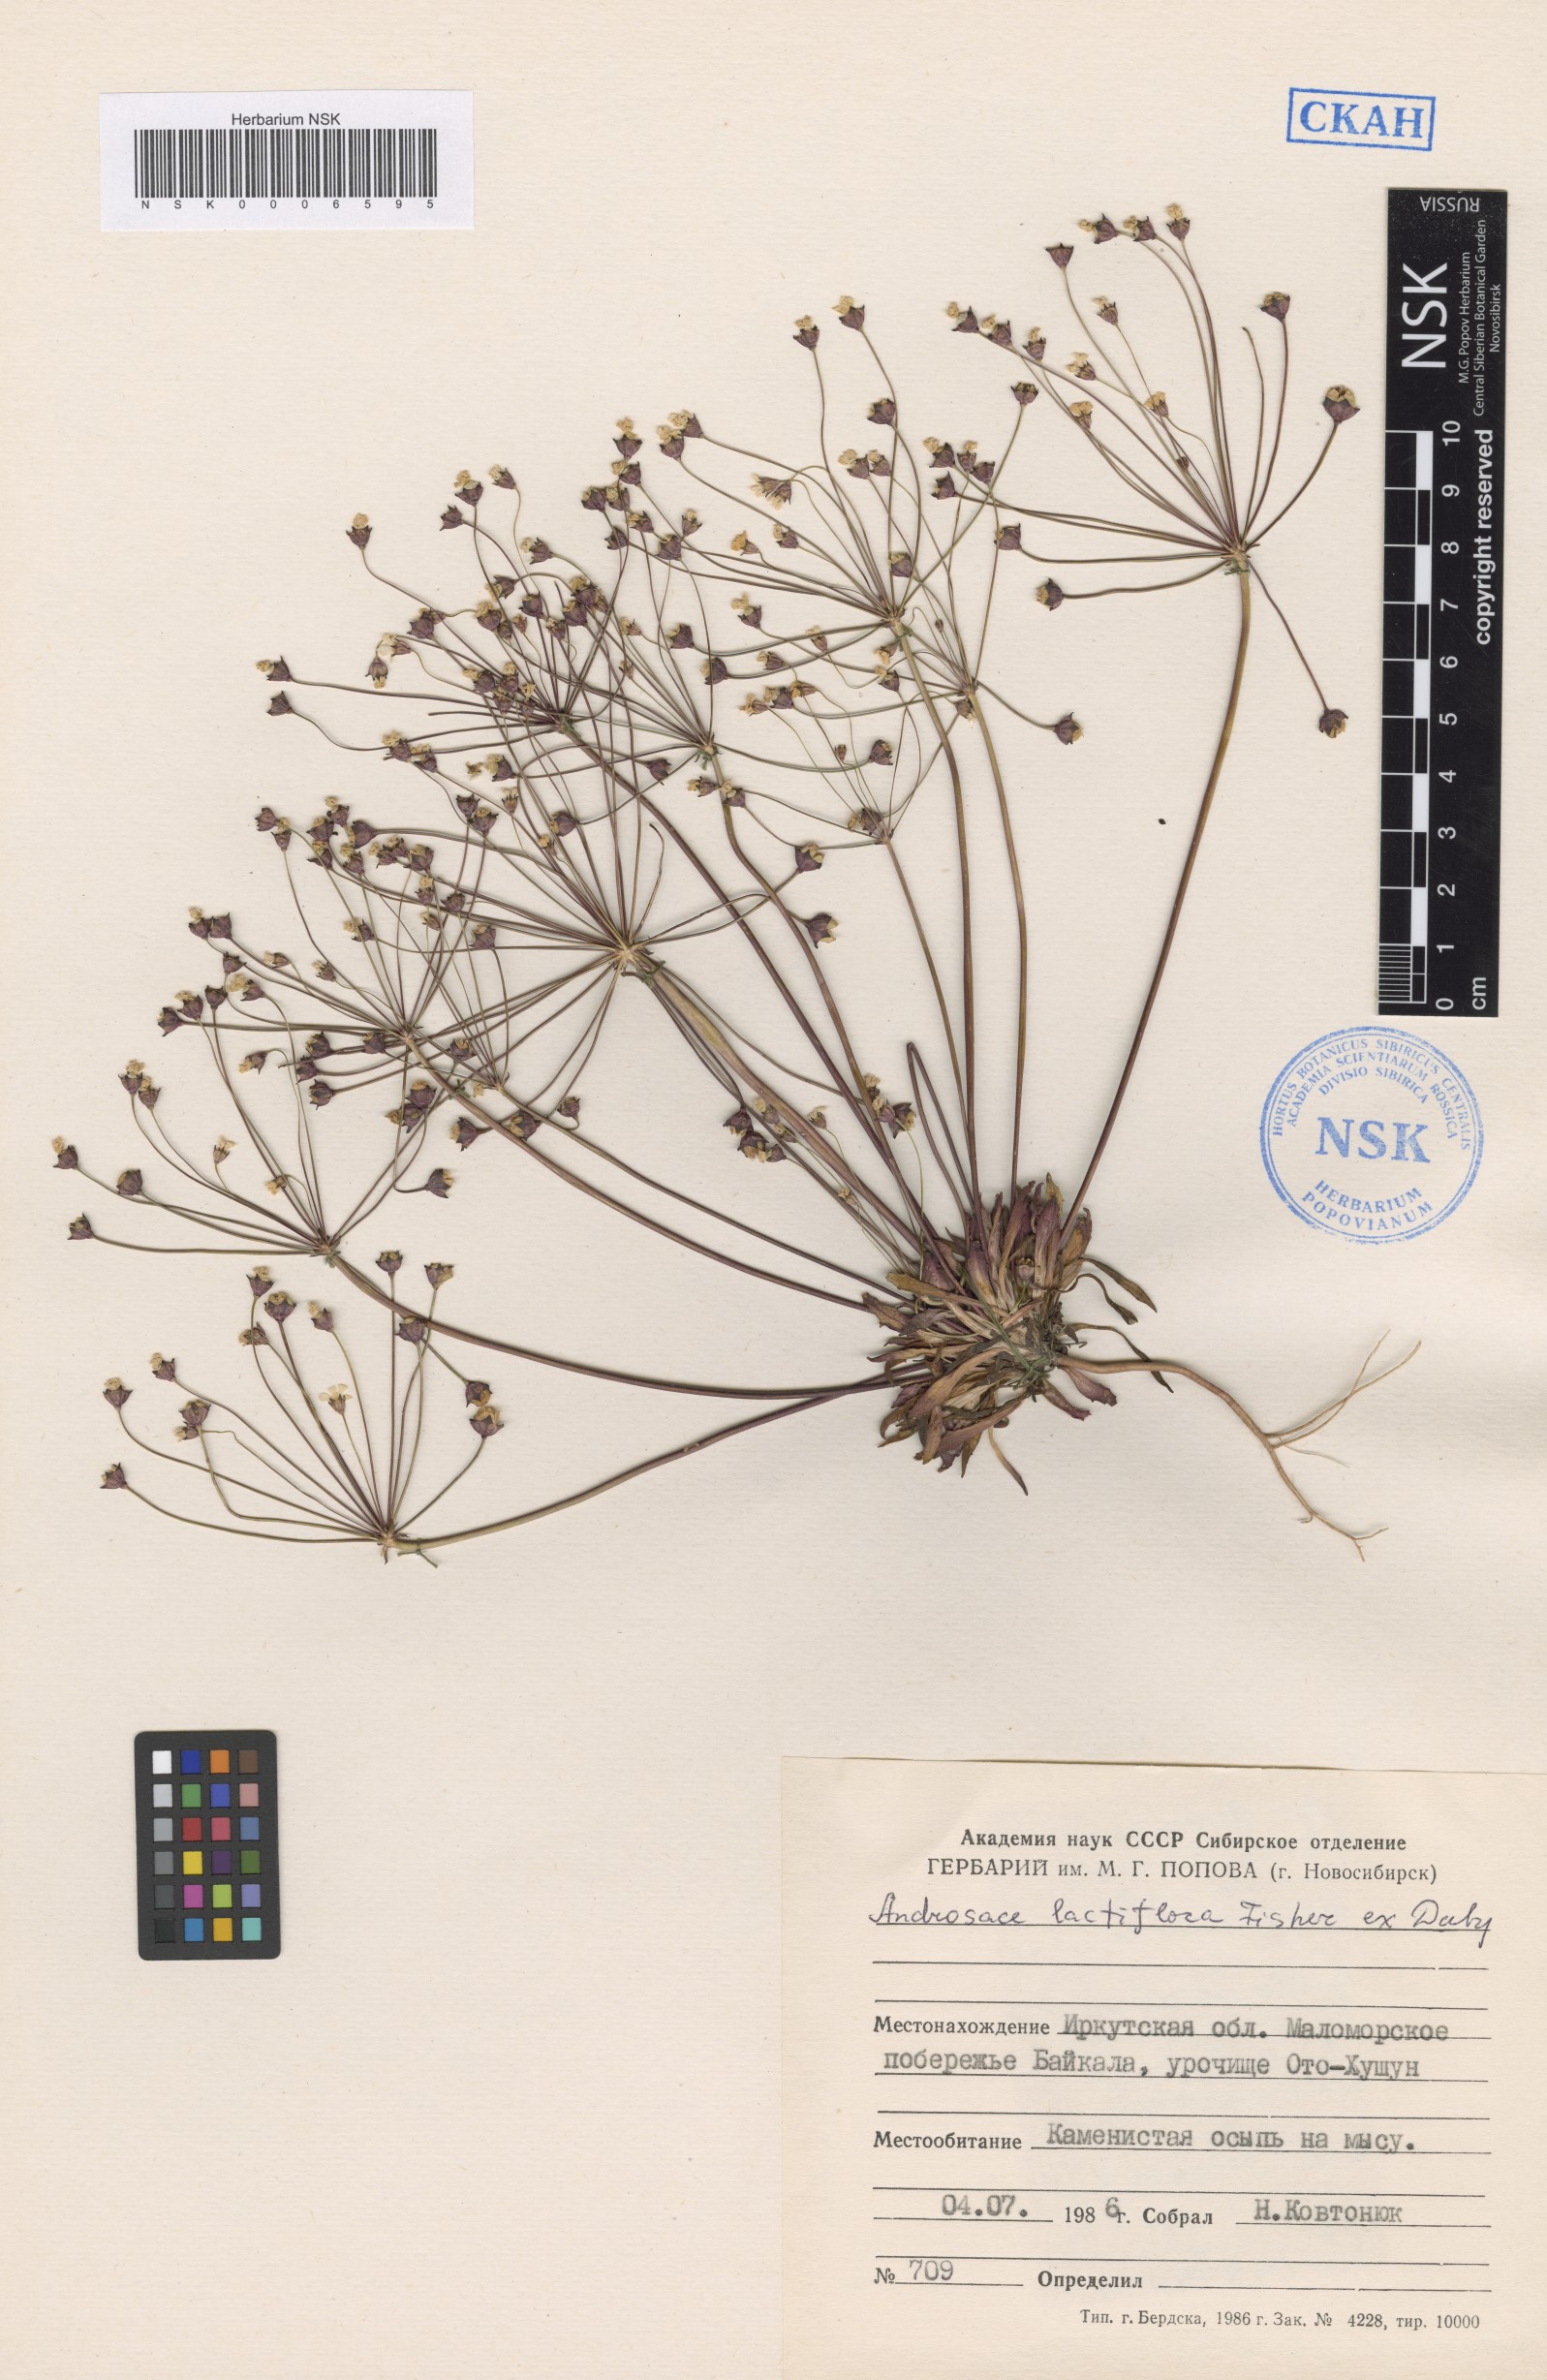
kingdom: Plantae
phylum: Tracheophyta
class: Magnoliopsida
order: Ericales
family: Primulaceae
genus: Androsace
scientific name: Androsace lactiflora
